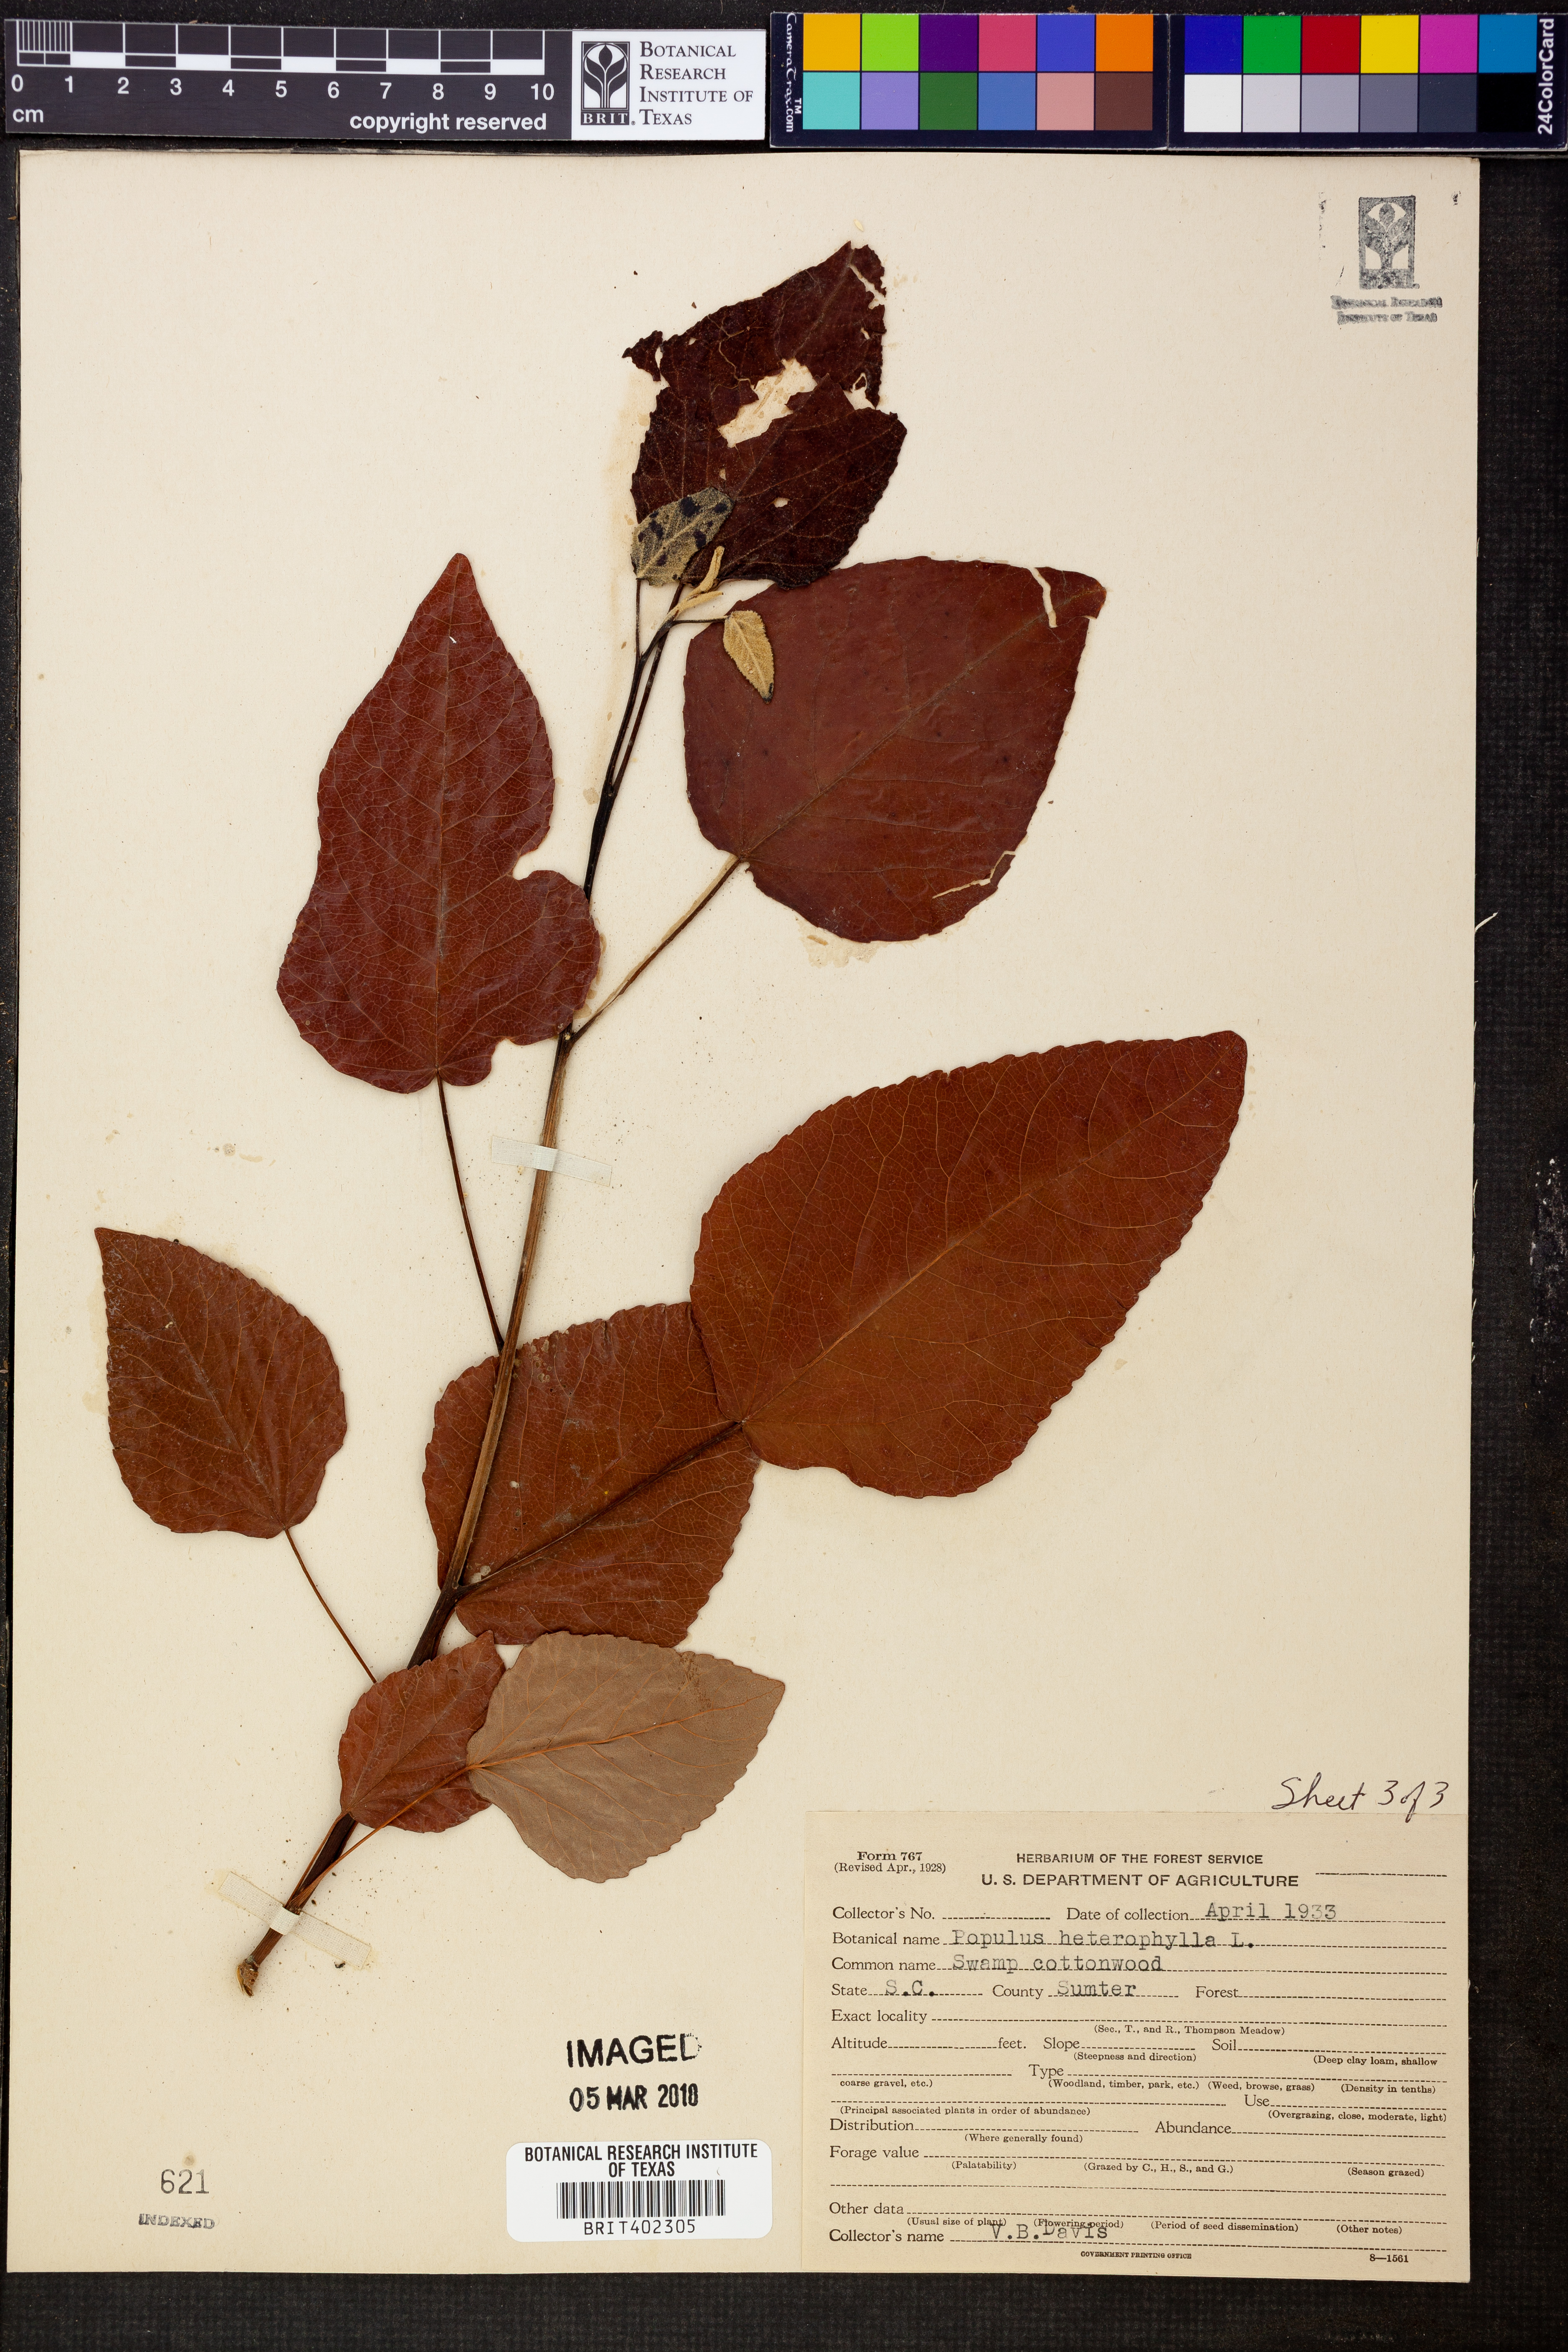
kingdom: Plantae
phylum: Tracheophyta
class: Magnoliopsida
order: Malpighiales
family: Salicaceae
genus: Populus
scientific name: Populus heterophylla
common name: Downy poplar
